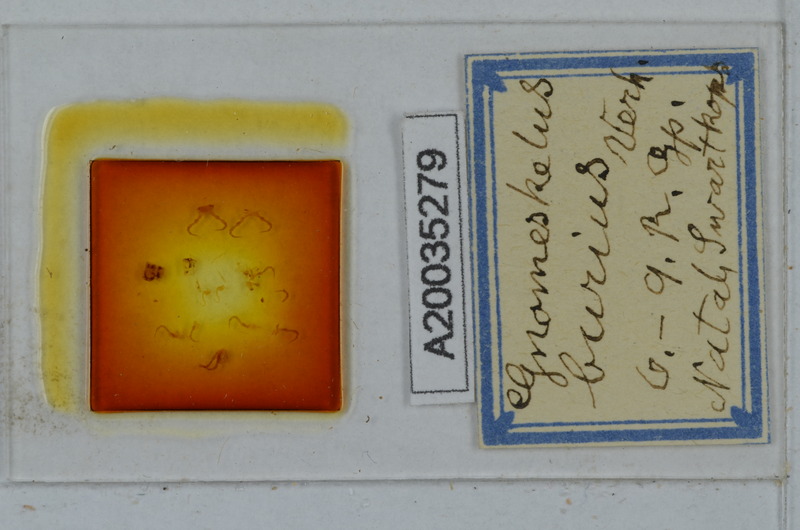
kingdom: Animalia
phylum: Arthropoda
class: Diplopoda
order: Polydesmida
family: Dalodesmidae
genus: Gnomeskelus
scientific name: Gnomeskelus burius
